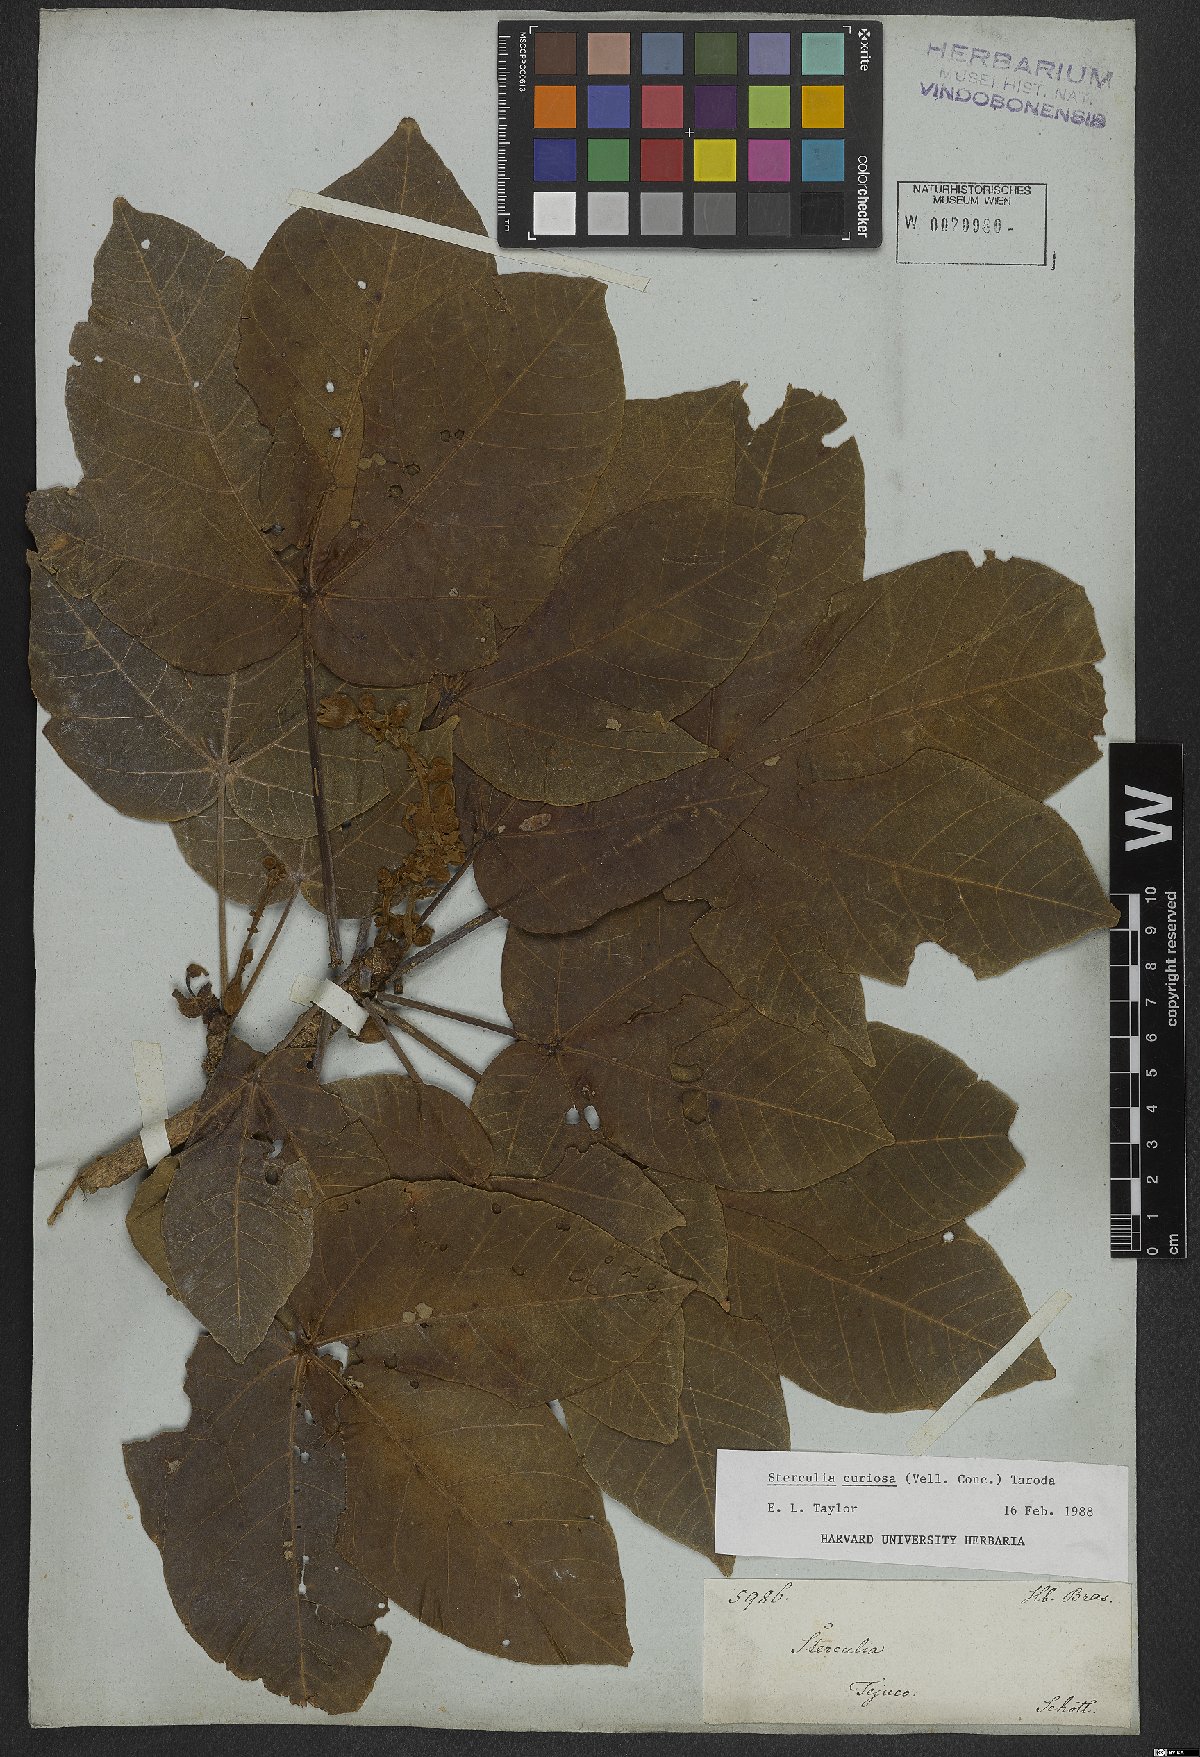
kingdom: Plantae
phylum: Tracheophyta
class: Magnoliopsida
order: Malvales
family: Malvaceae
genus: Sterculia
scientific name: Sterculia curiosa
